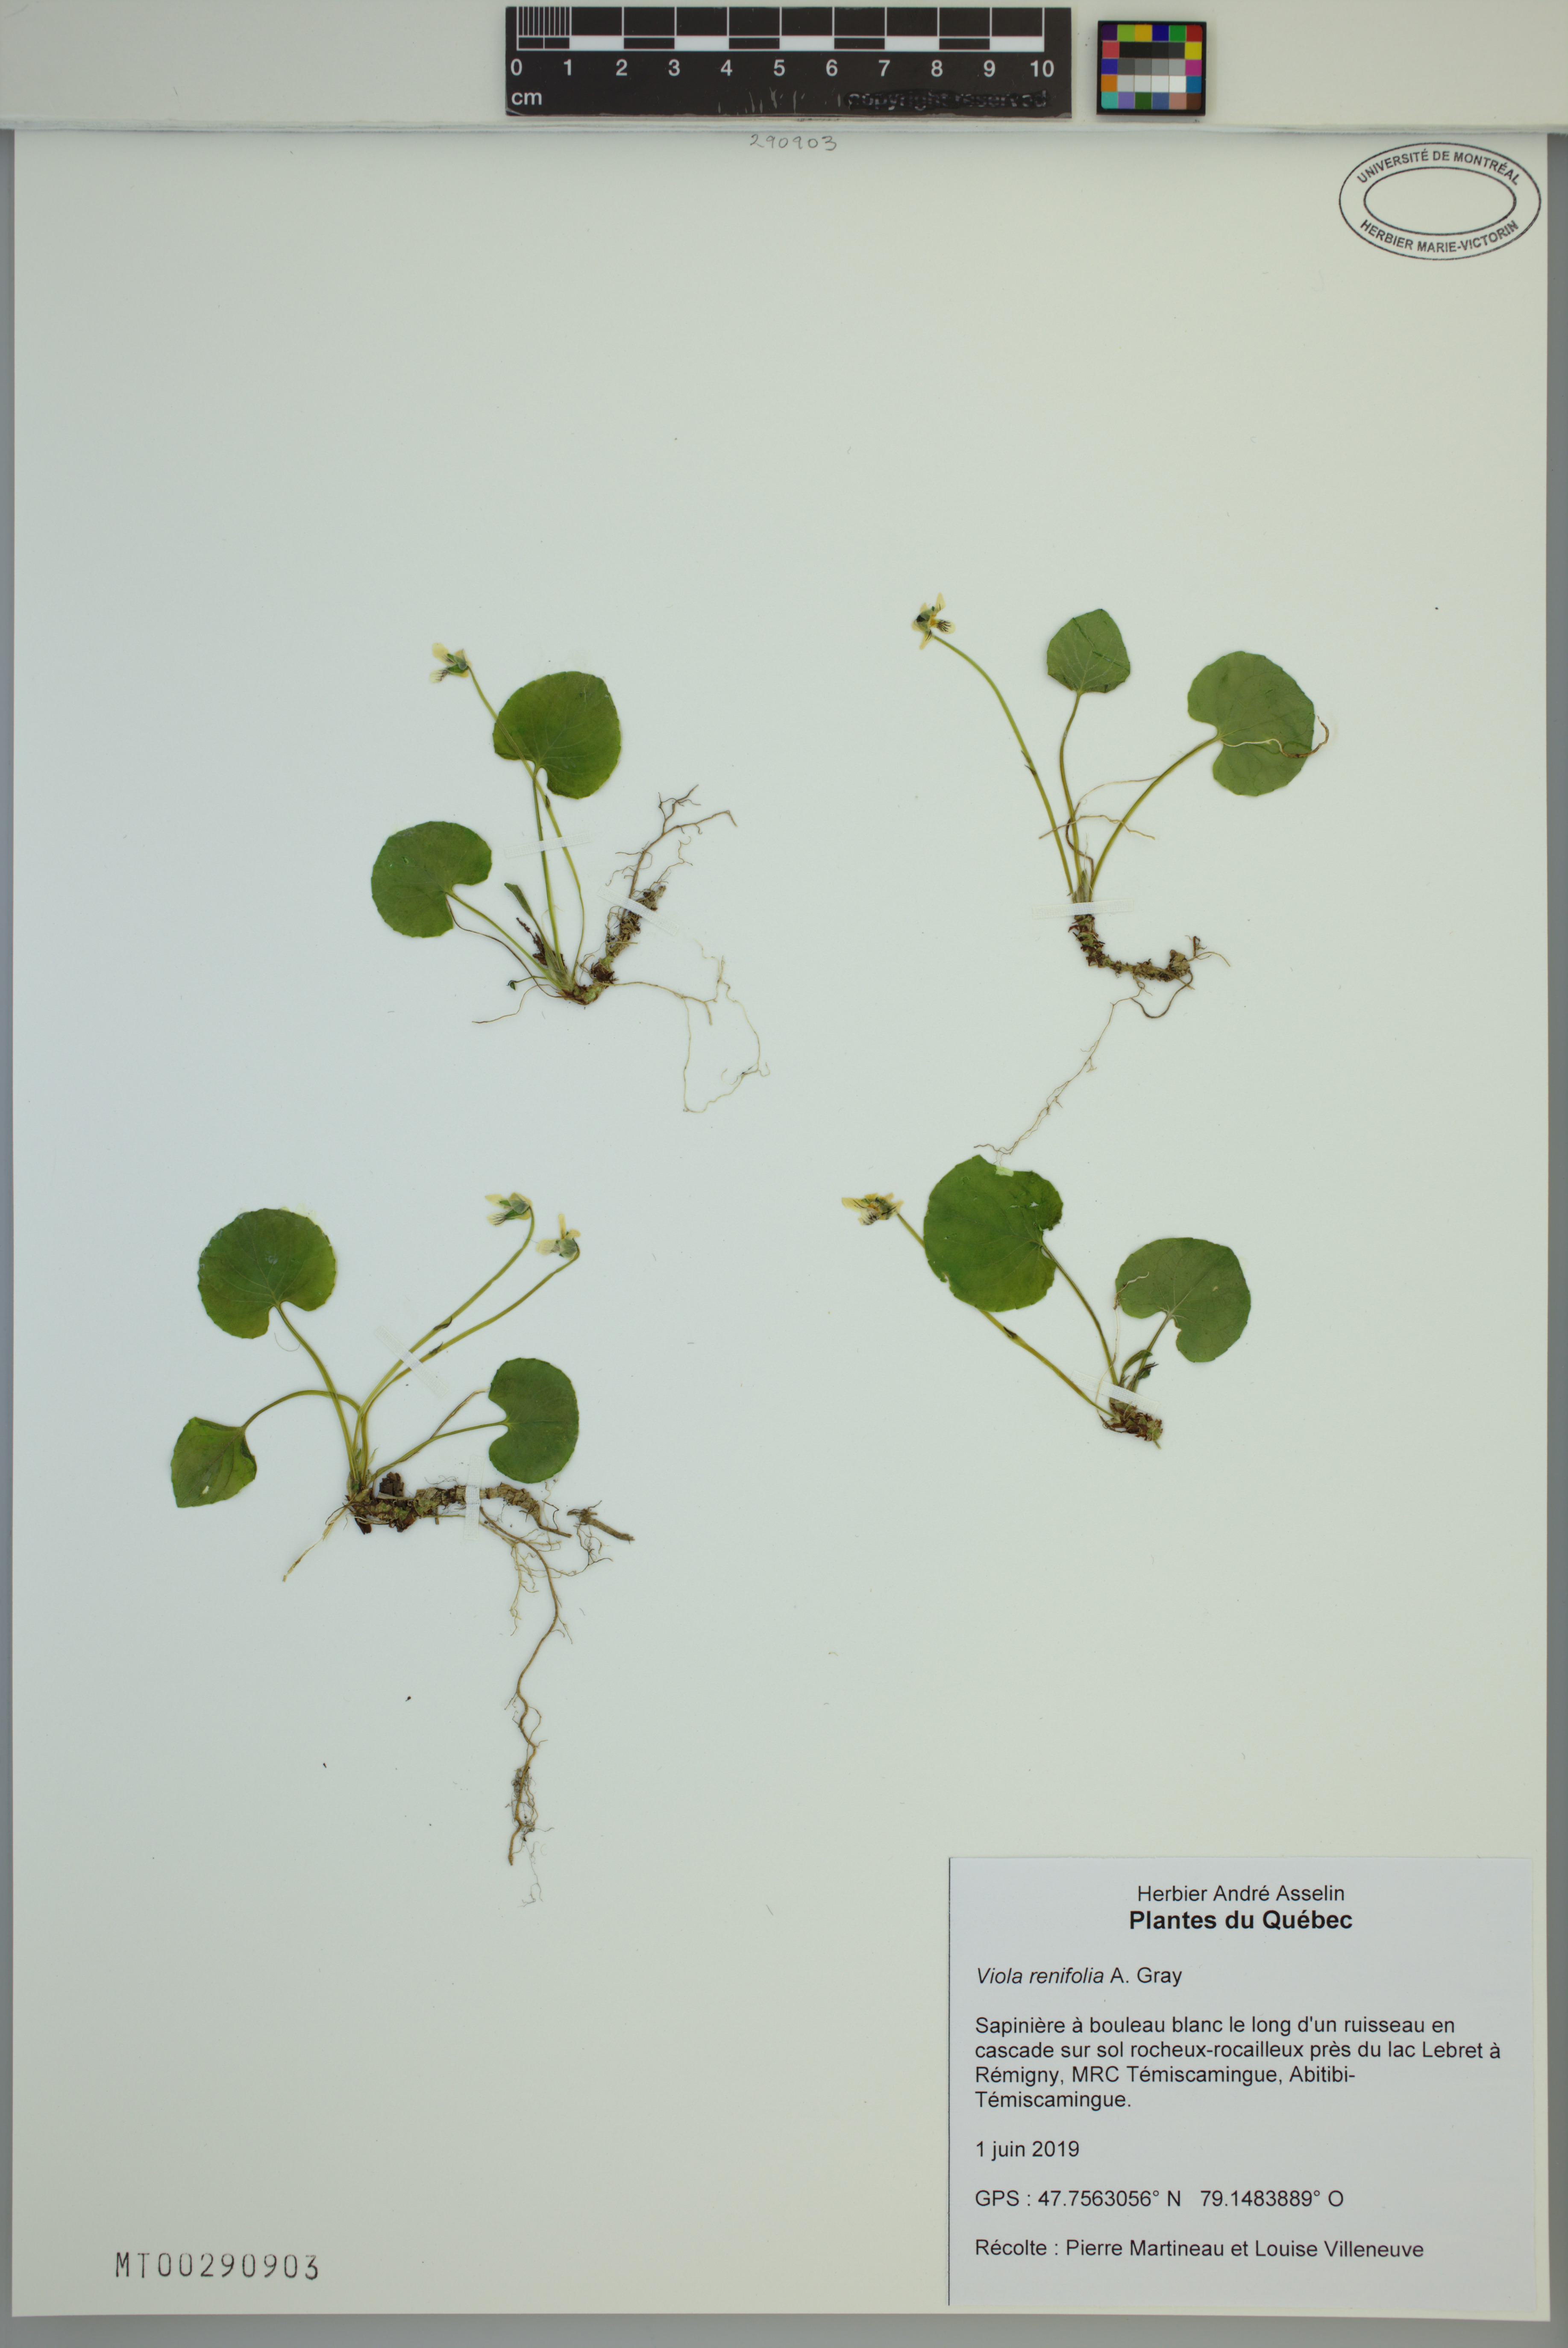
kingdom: Plantae
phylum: Tracheophyta
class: Magnoliopsida
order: Malpighiales
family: Violaceae
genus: Viola
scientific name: Viola renifolia
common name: Kidney-leaf violet
